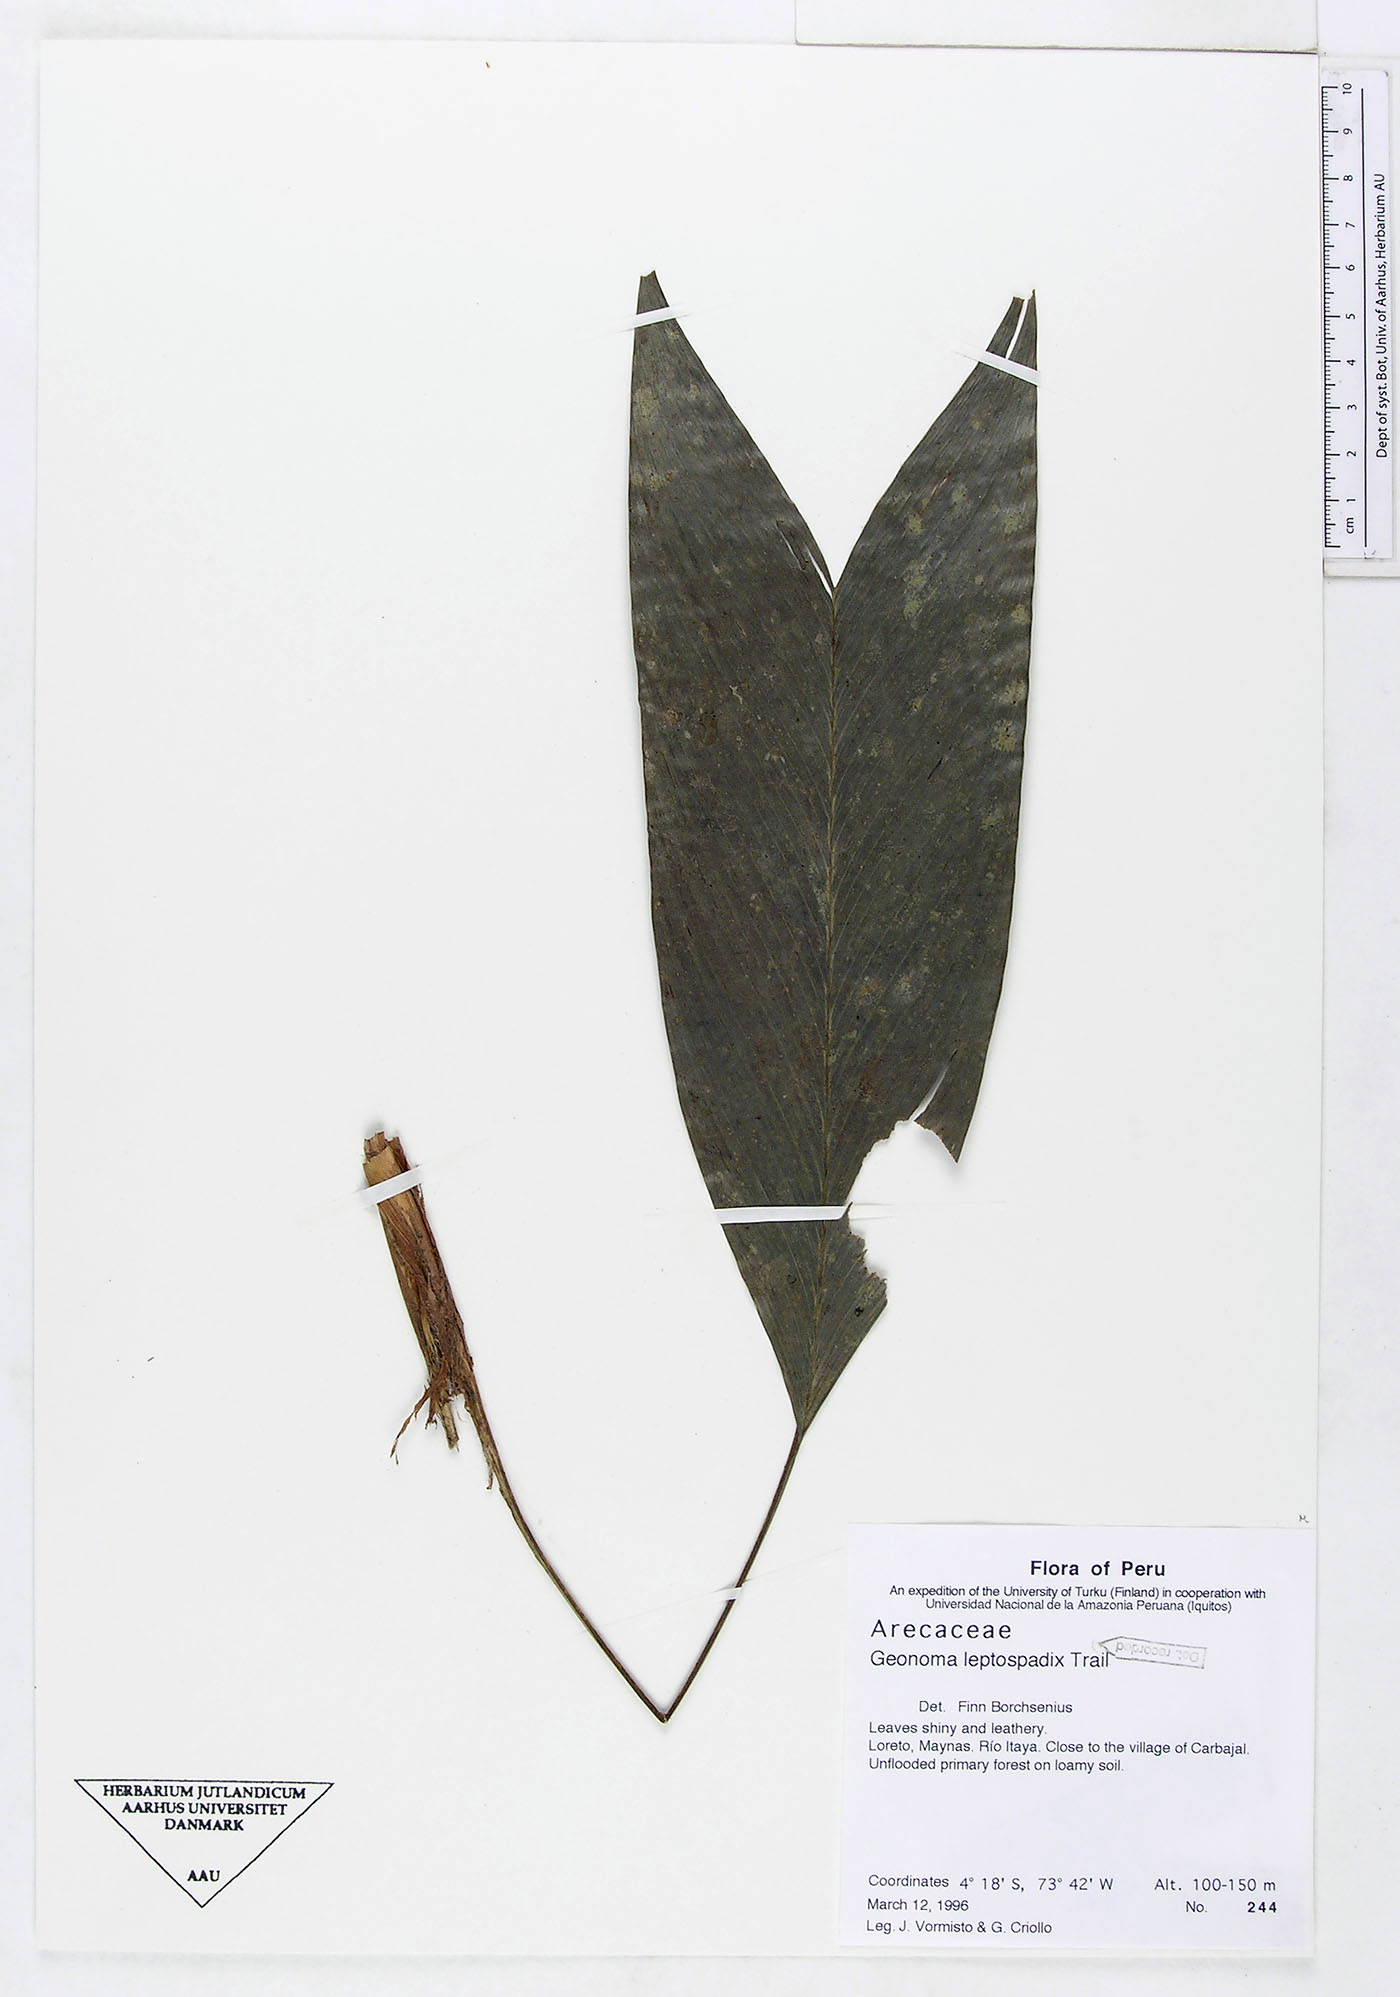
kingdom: Plantae
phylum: Tracheophyta
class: Liliopsida
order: Arecales
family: Arecaceae
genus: Geonoma
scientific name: Geonoma leptospadix
